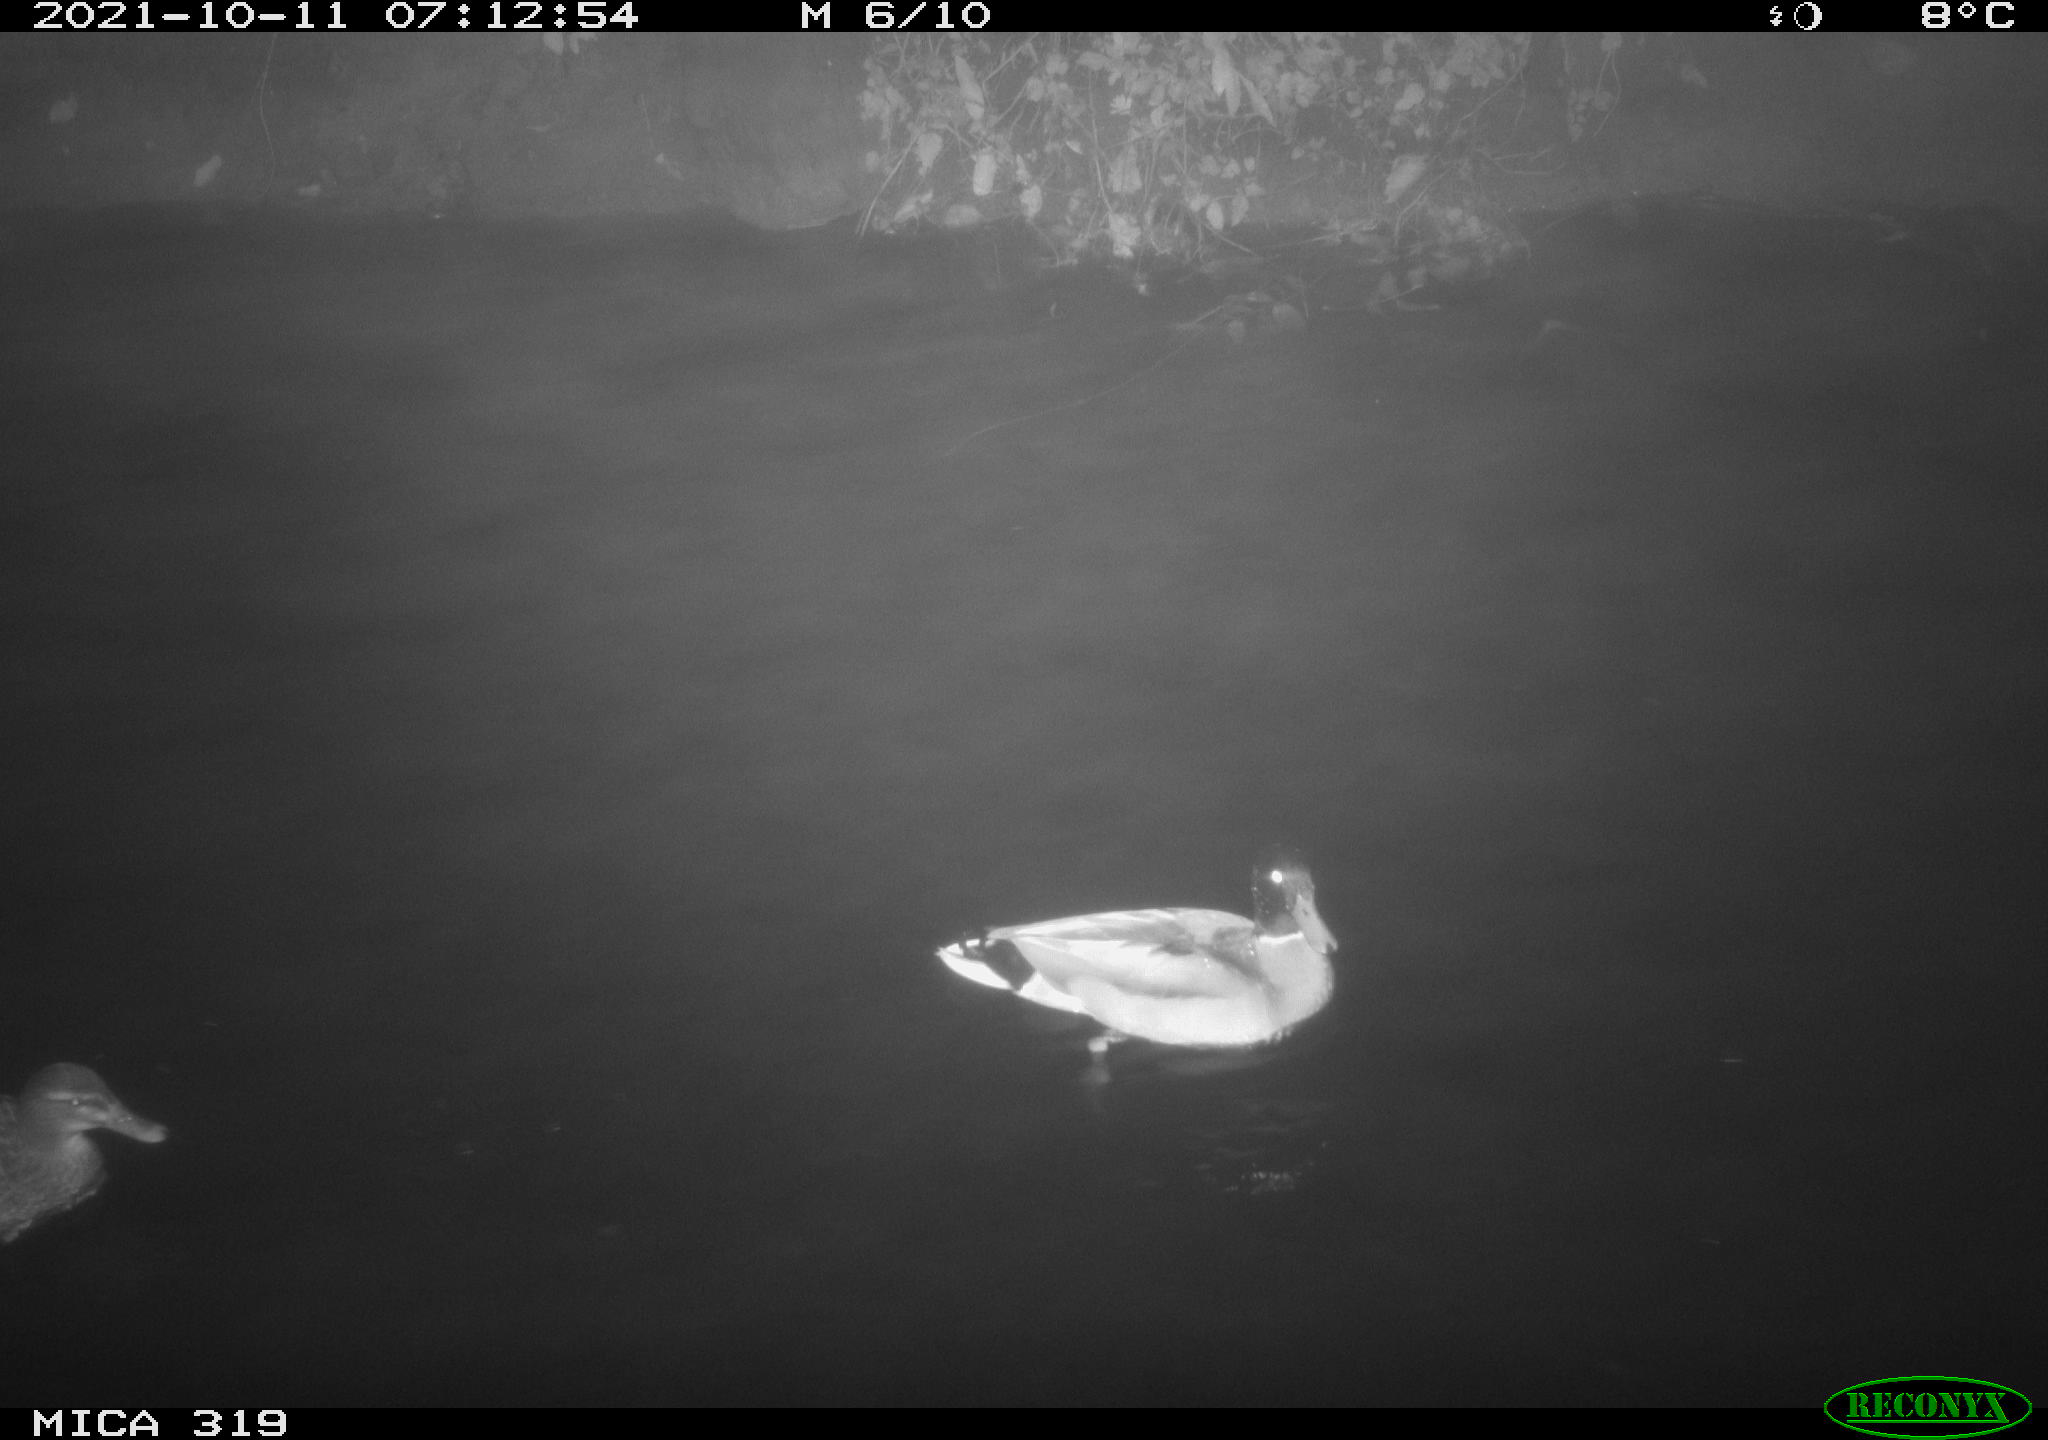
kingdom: Animalia
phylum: Chordata
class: Aves
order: Anseriformes
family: Anatidae
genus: Anas
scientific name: Anas platyrhynchos
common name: Mallard
